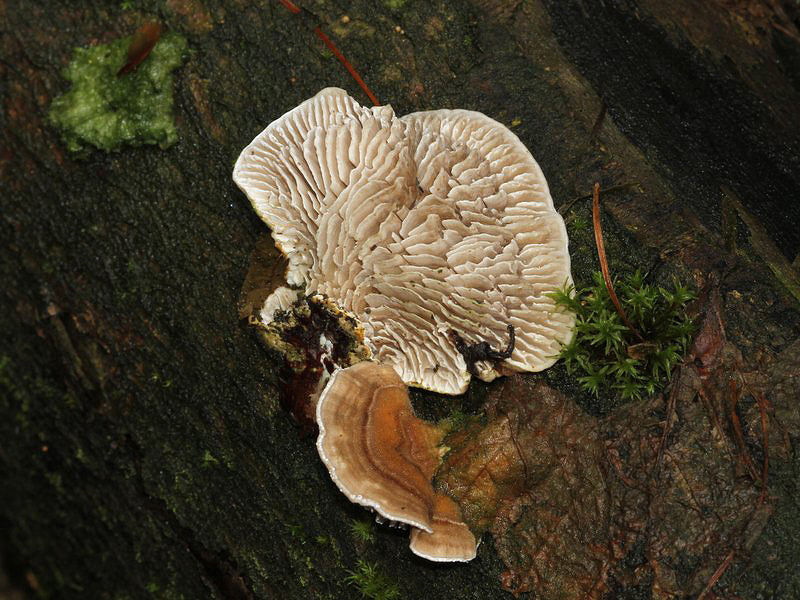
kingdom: Fungi
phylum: Basidiomycota
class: Agaricomycetes
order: Polyporales
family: Polyporaceae
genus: Lenzites
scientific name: Lenzites betulinus
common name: birke-læderporesvamp
